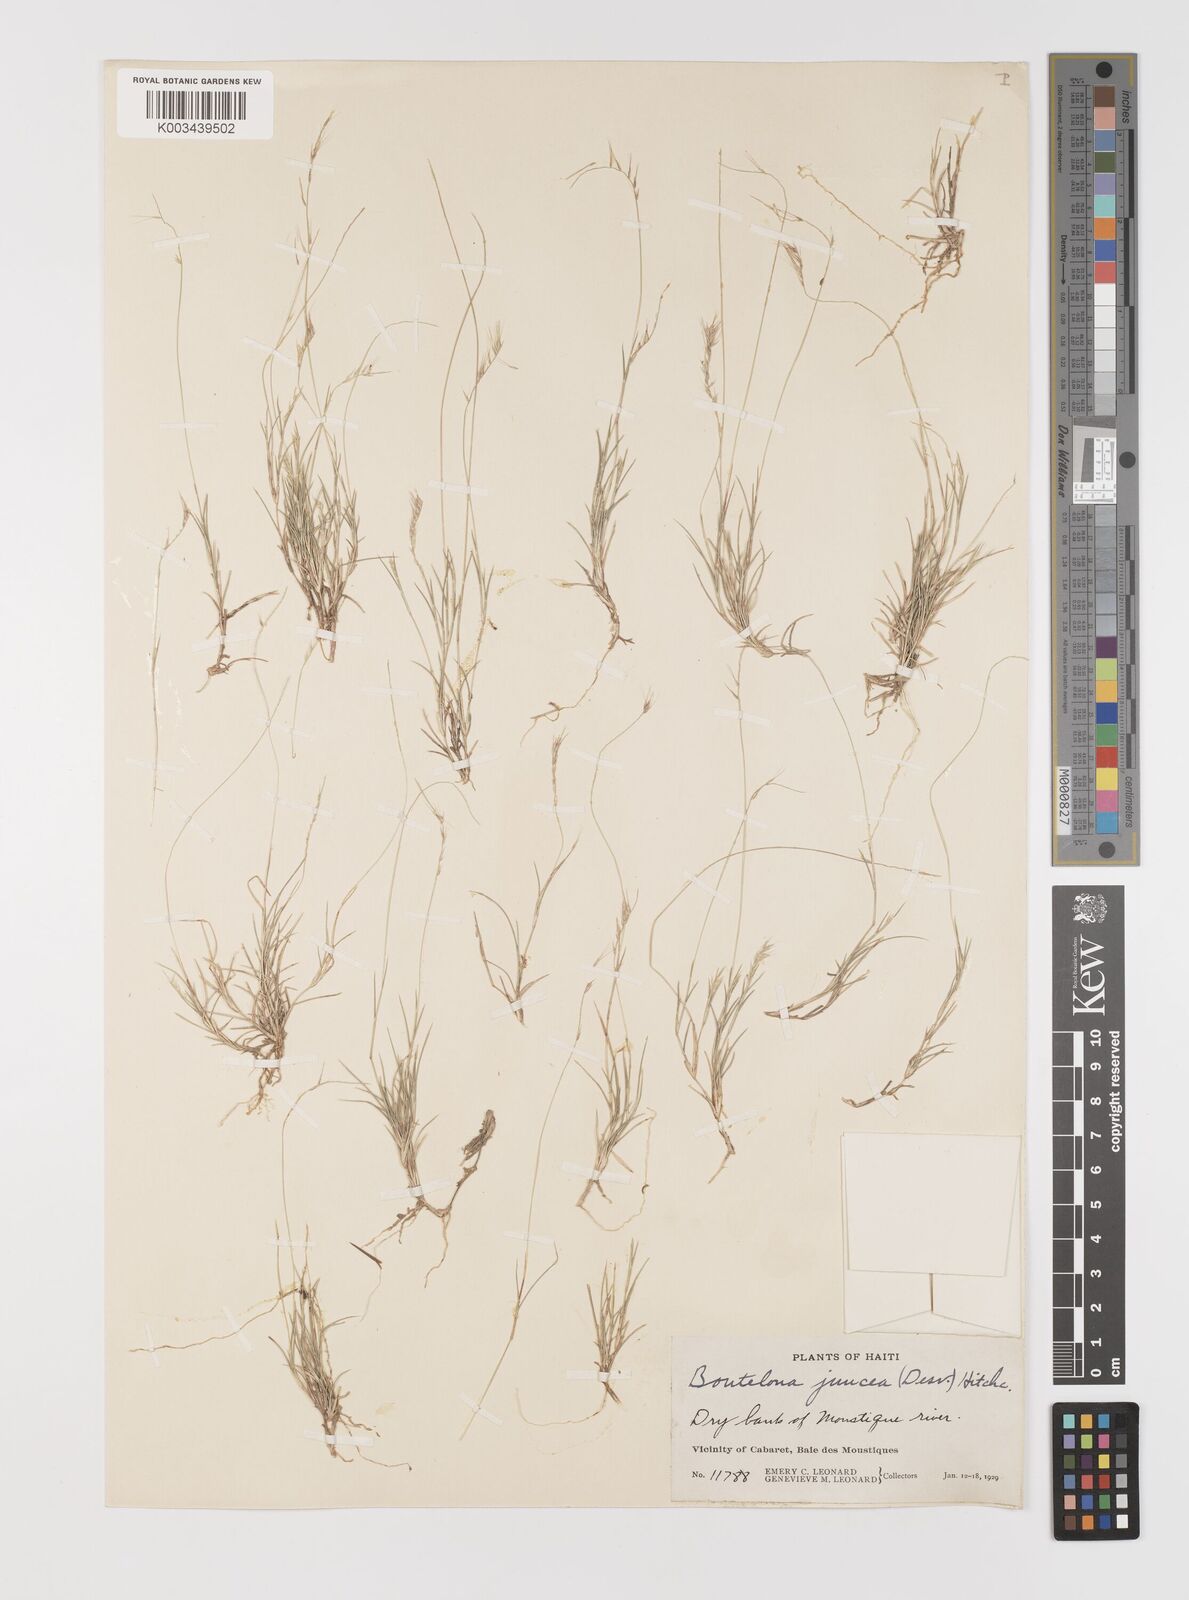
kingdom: Plantae
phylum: Tracheophyta
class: Liliopsida
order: Poales
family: Poaceae
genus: Bouteloua
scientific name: Bouteloua juncea
